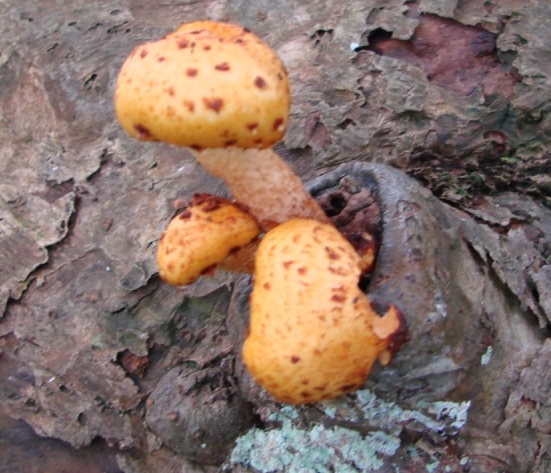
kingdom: Fungi
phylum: Basidiomycota
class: Agaricomycetes
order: Agaricales
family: Strophariaceae
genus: Pholiota
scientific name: Pholiota adiposa
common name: højtsiddende skælhat
